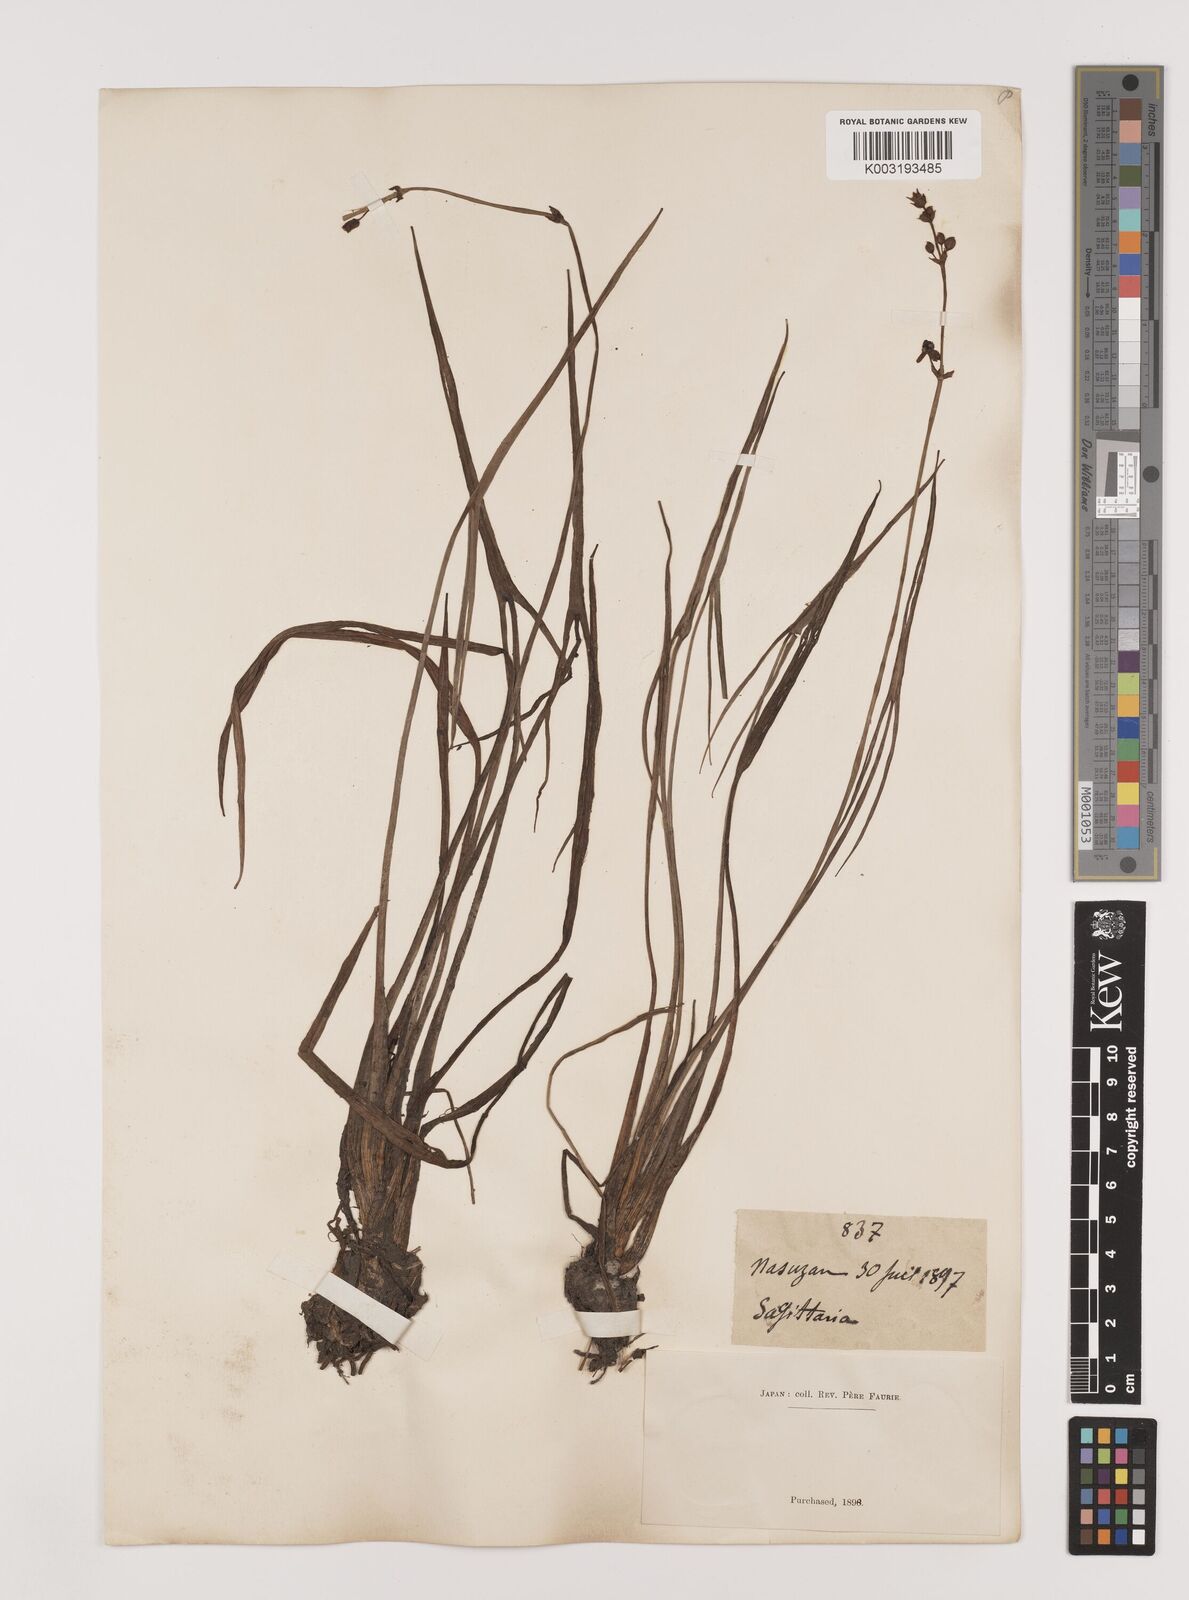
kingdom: Plantae
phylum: Tracheophyta
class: Liliopsida
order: Alismatales
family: Alismataceae
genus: Sagittaria
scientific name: Sagittaria aginashi
